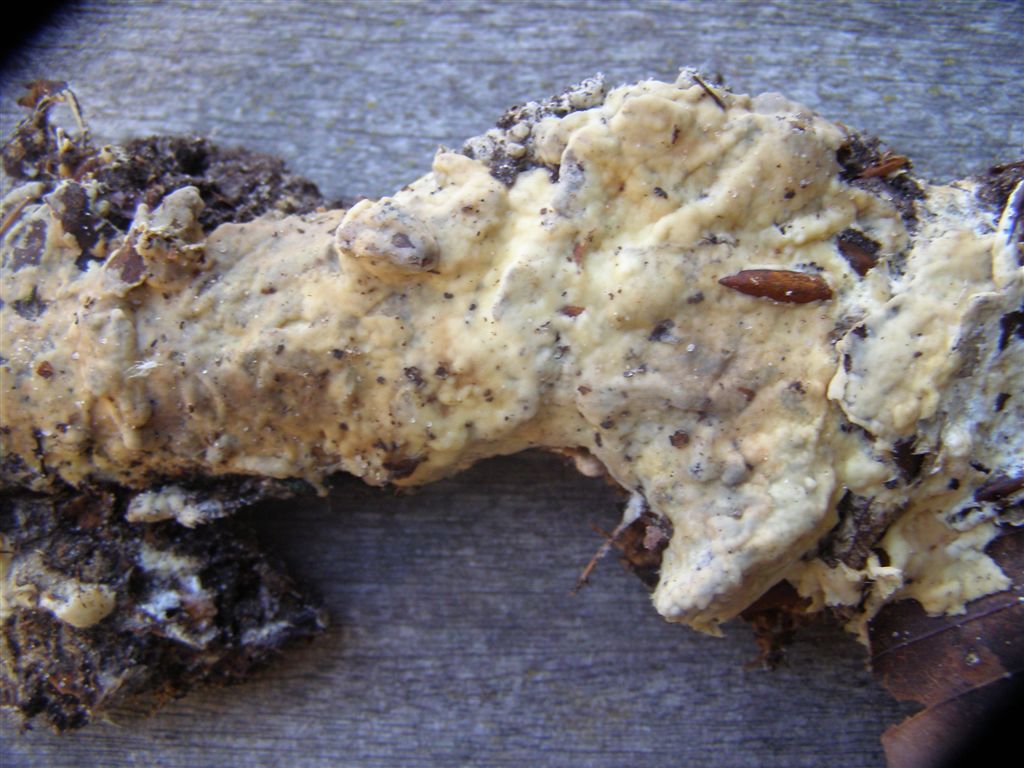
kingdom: Fungi
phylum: Basidiomycota
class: Agaricomycetes
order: Sebacinales
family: Sebacinaceae
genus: Sebacina
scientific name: Sebacina incrustans
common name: krybende bævretalg
